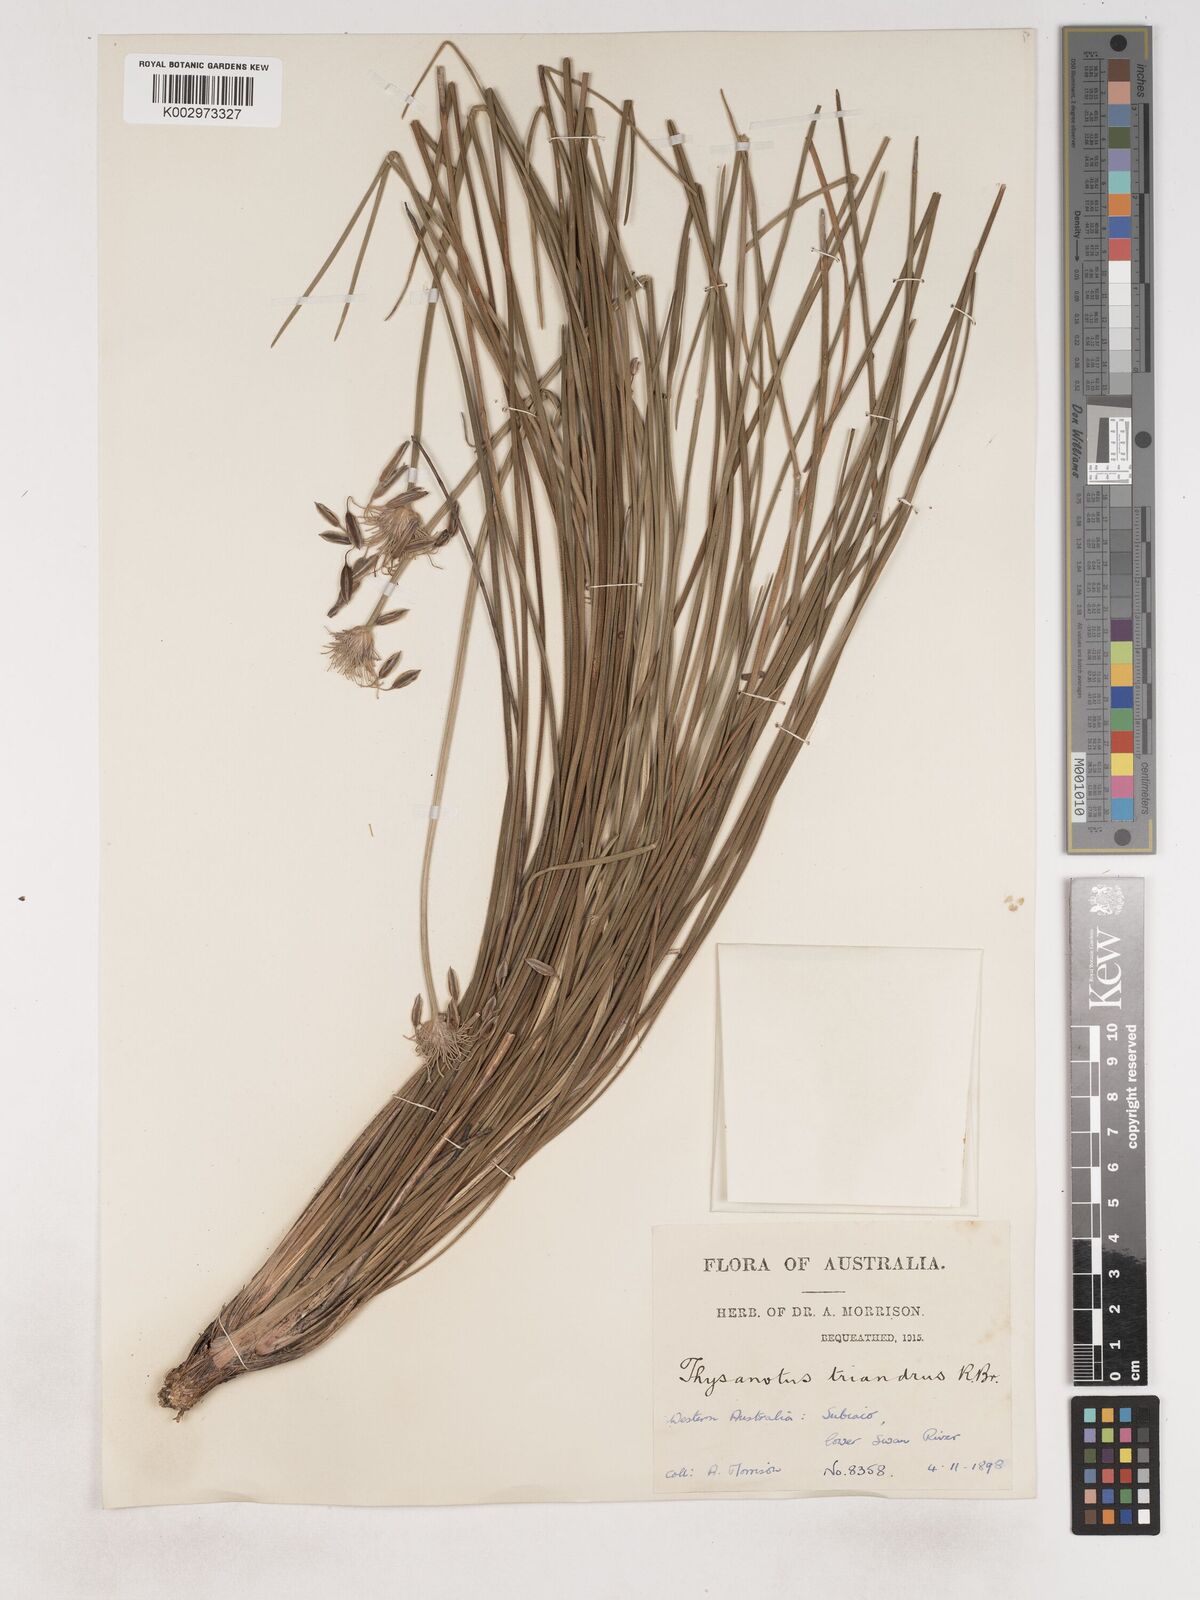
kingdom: Plantae
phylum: Tracheophyta
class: Liliopsida
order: Asparagales
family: Asparagaceae
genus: Thysanotus
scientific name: Thysanotus triandrus
